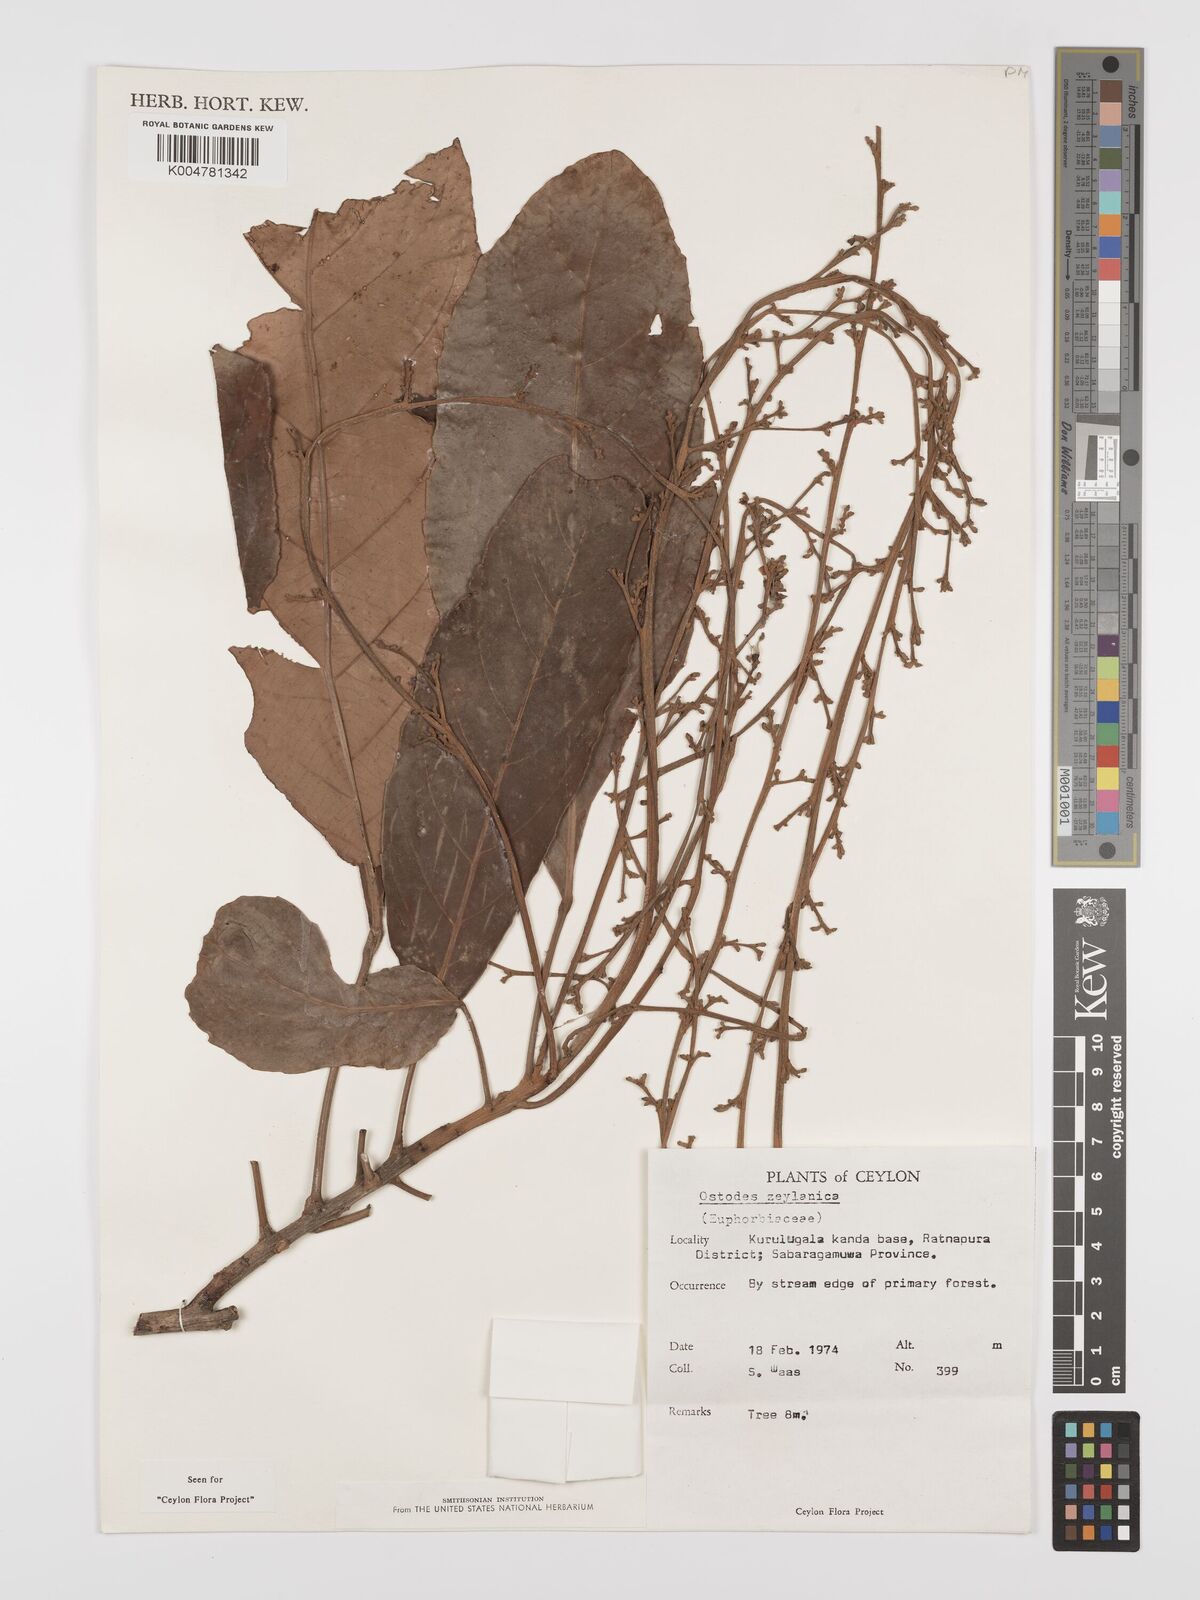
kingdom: Plantae
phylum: Tracheophyta
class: Magnoliopsida
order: Malpighiales
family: Euphorbiaceae
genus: Paracroton
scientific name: Paracroton zeylanicus
